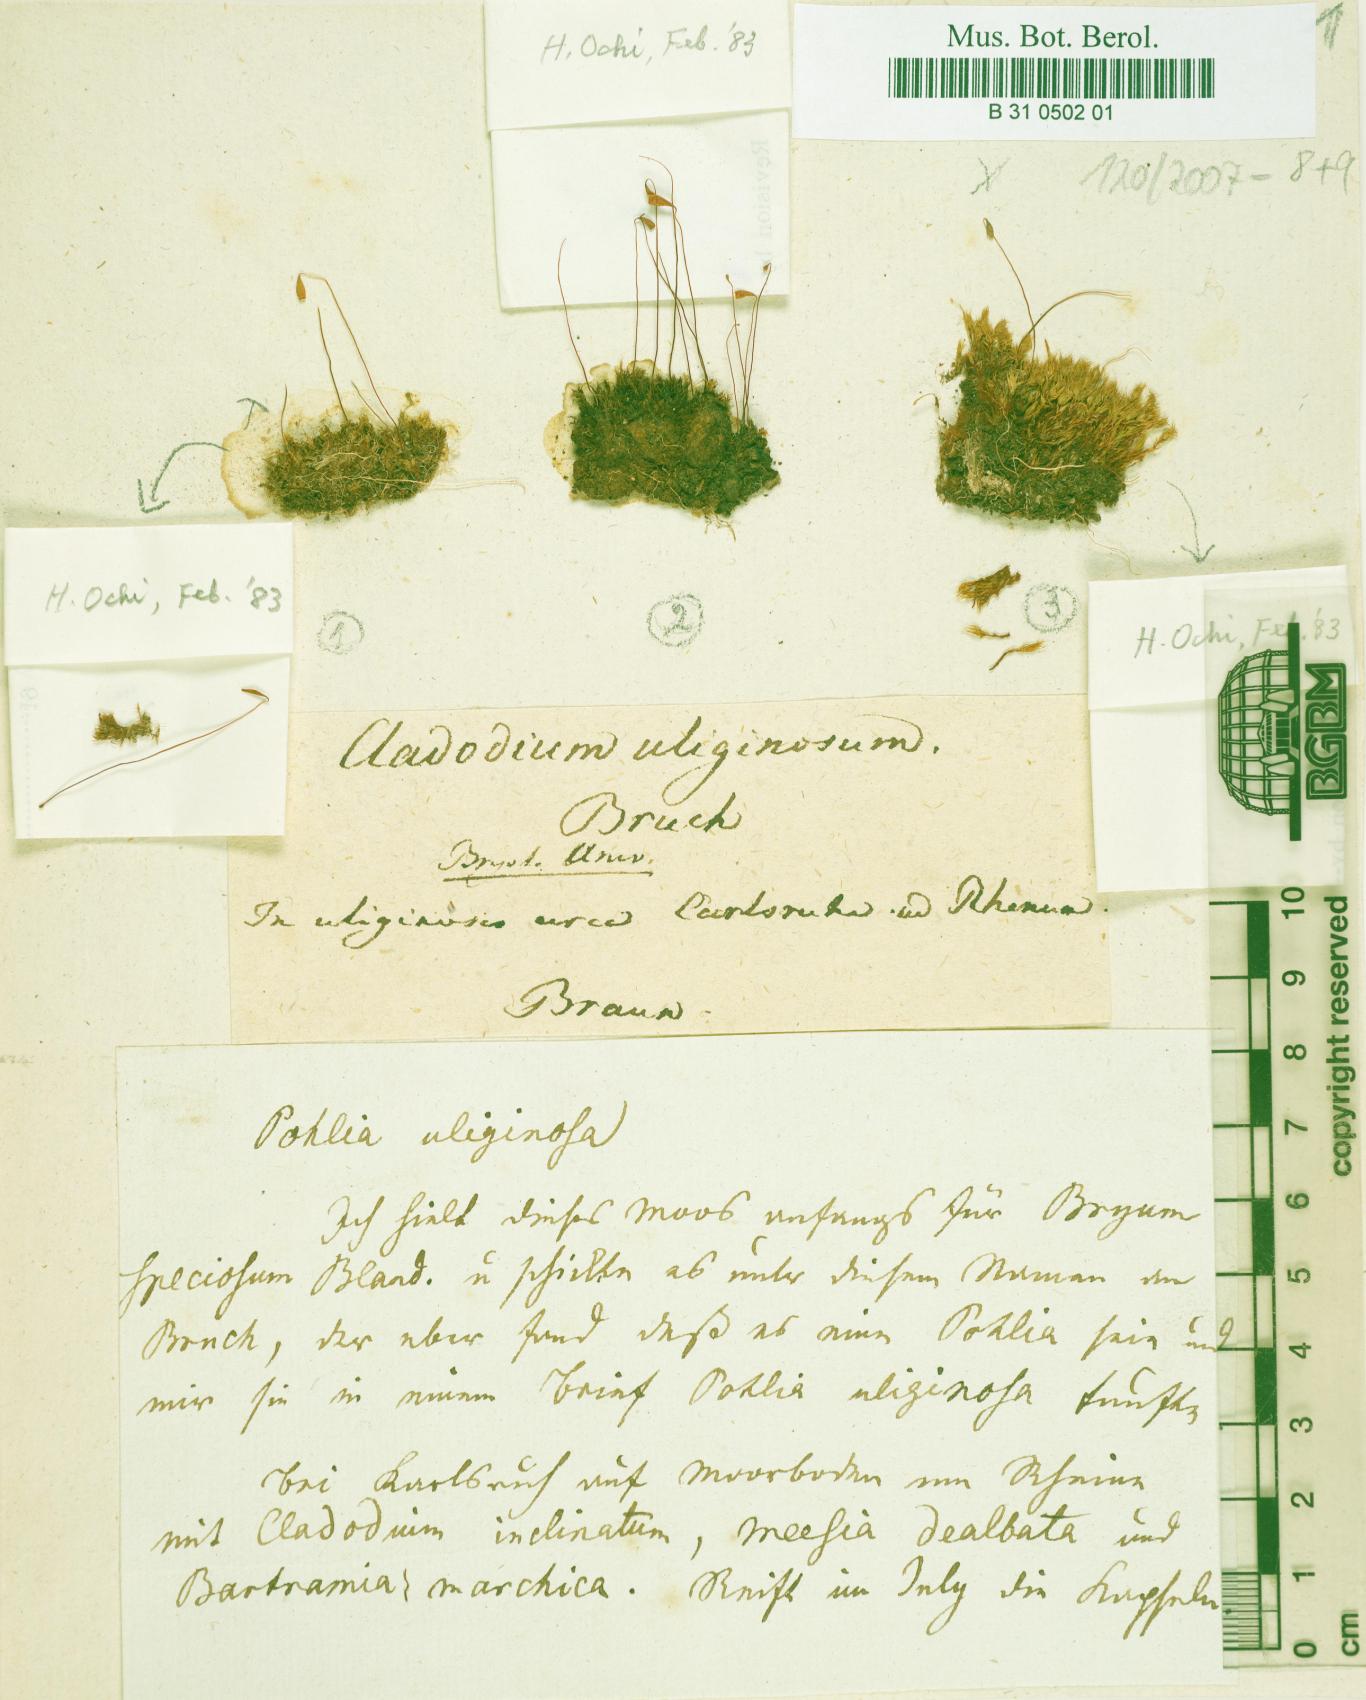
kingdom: Plantae
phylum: Bryophyta
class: Bryopsida
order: Bryales
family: Bryaceae
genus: Ptychostomum
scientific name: Ptychostomum cernuum
